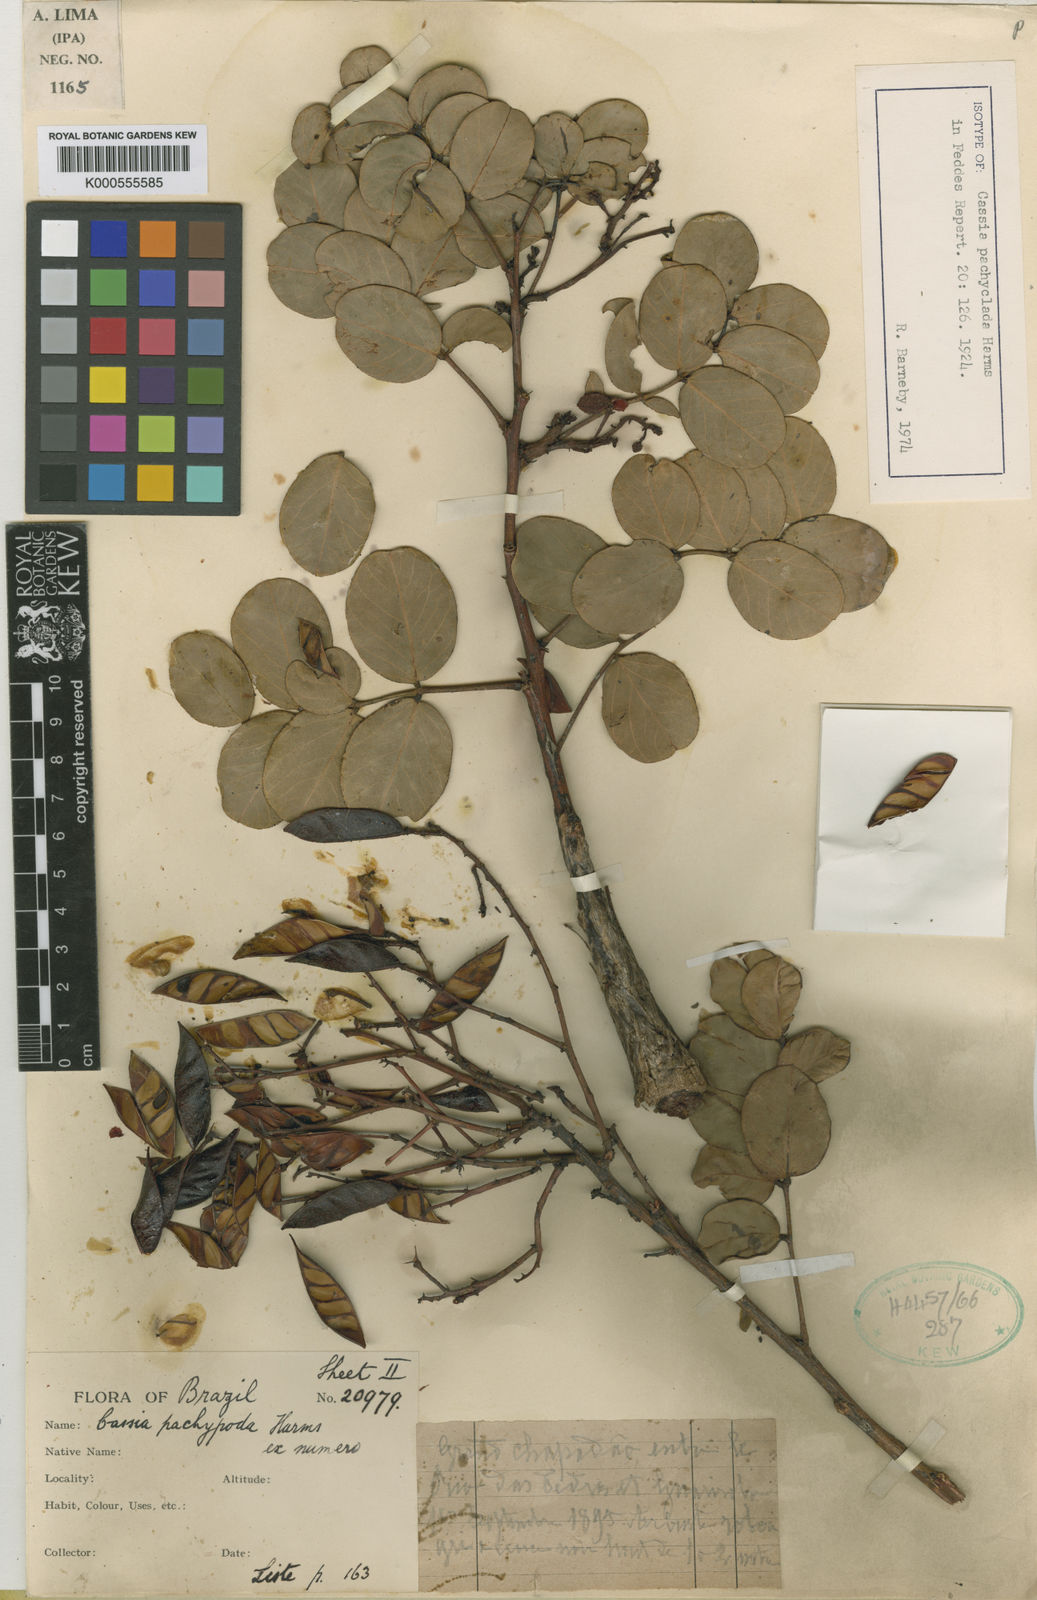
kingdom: Plantae
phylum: Tracheophyta
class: Magnoliopsida
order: Fabales
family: Fabaceae
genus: Chamaecrista
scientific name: Chamaecrista pachyclada
